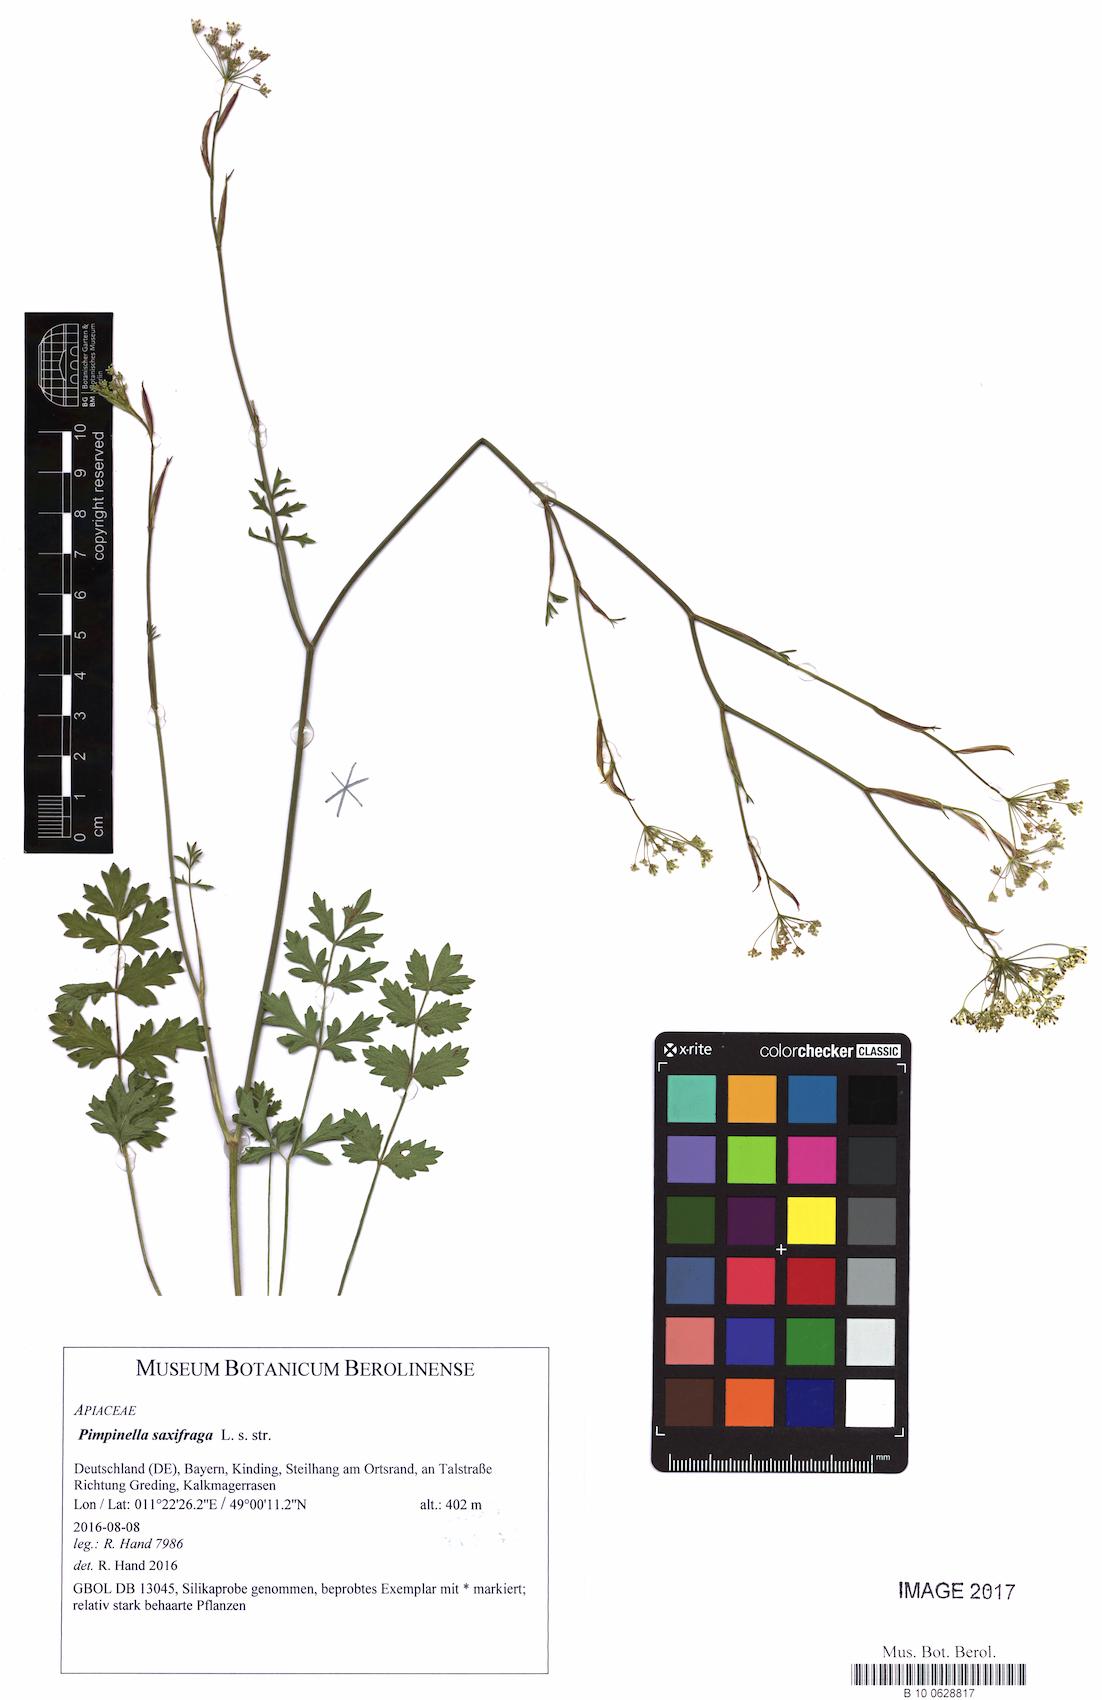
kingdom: Plantae
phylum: Tracheophyta
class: Magnoliopsida
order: Apiales
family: Apiaceae
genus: Pimpinella
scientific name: Pimpinella saxifraga
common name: Burnet-saxifrage
